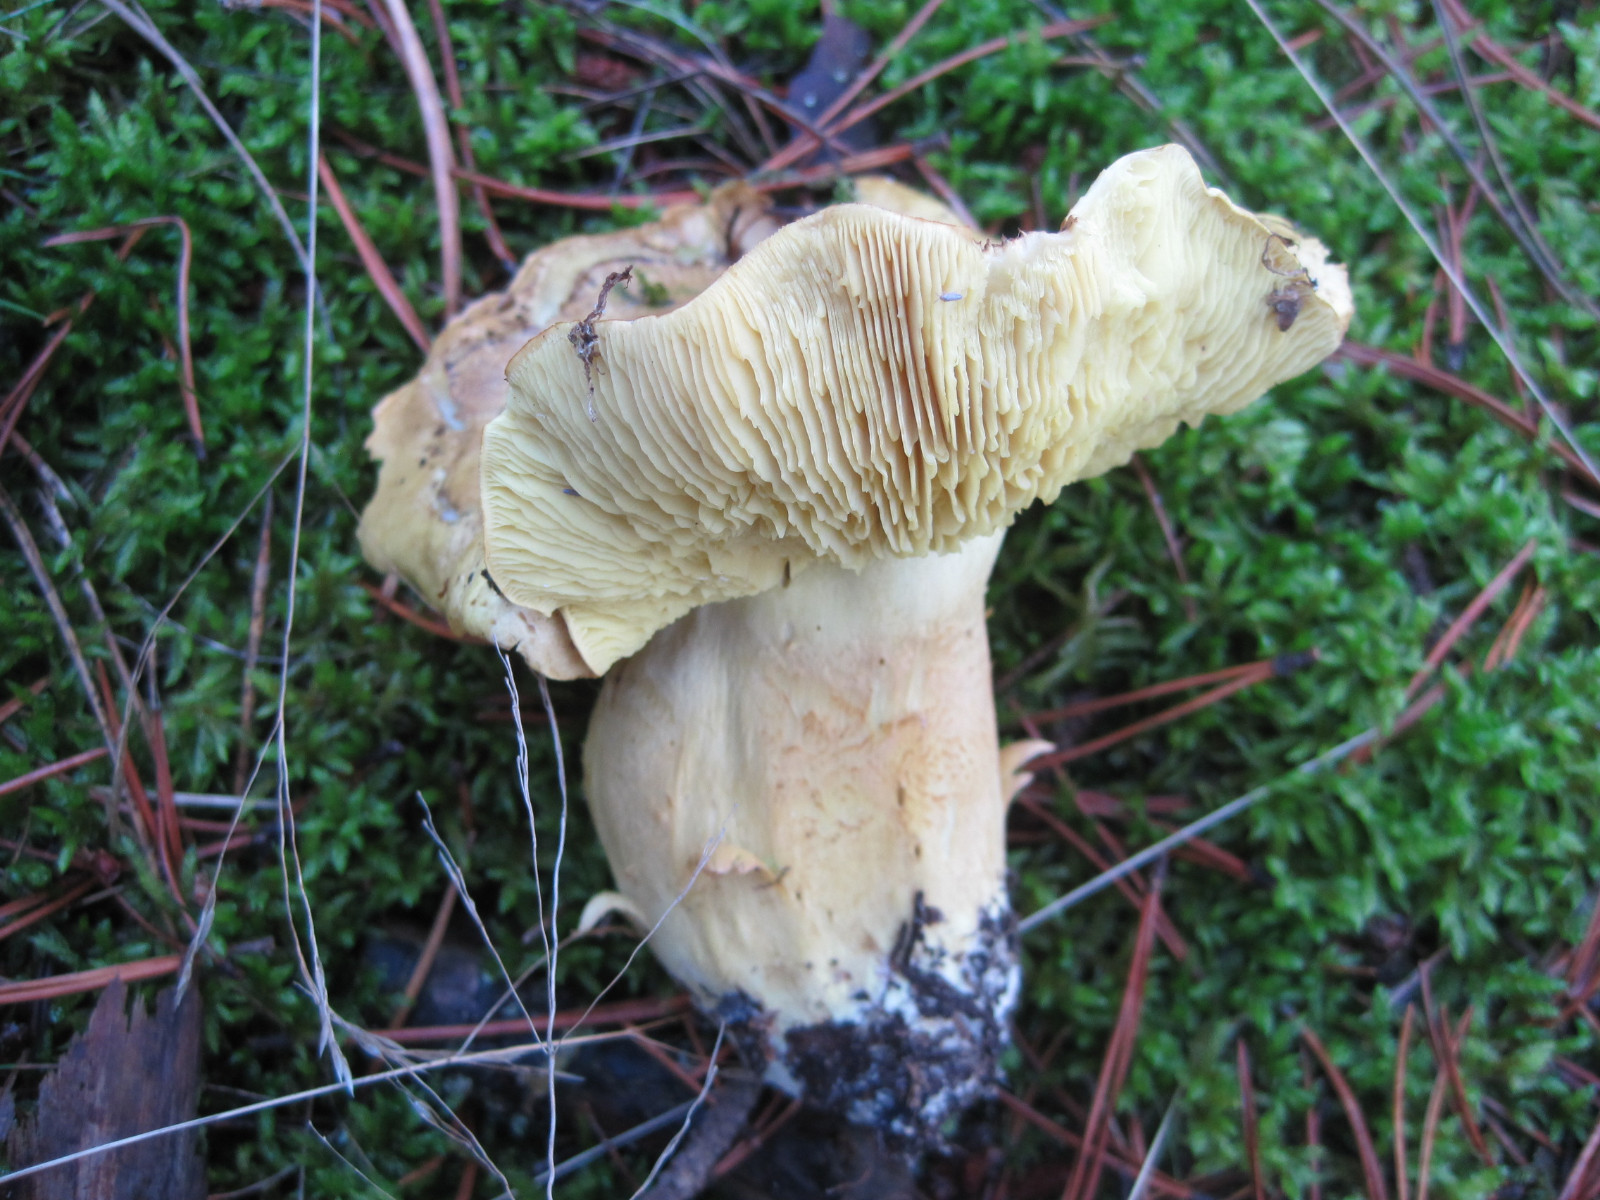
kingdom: Fungi
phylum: Basidiomycota
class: Agaricomycetes
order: Agaricales
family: Tricholomataceae
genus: Tricholoma
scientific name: Tricholoma equestre
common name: ægte ridderhat
